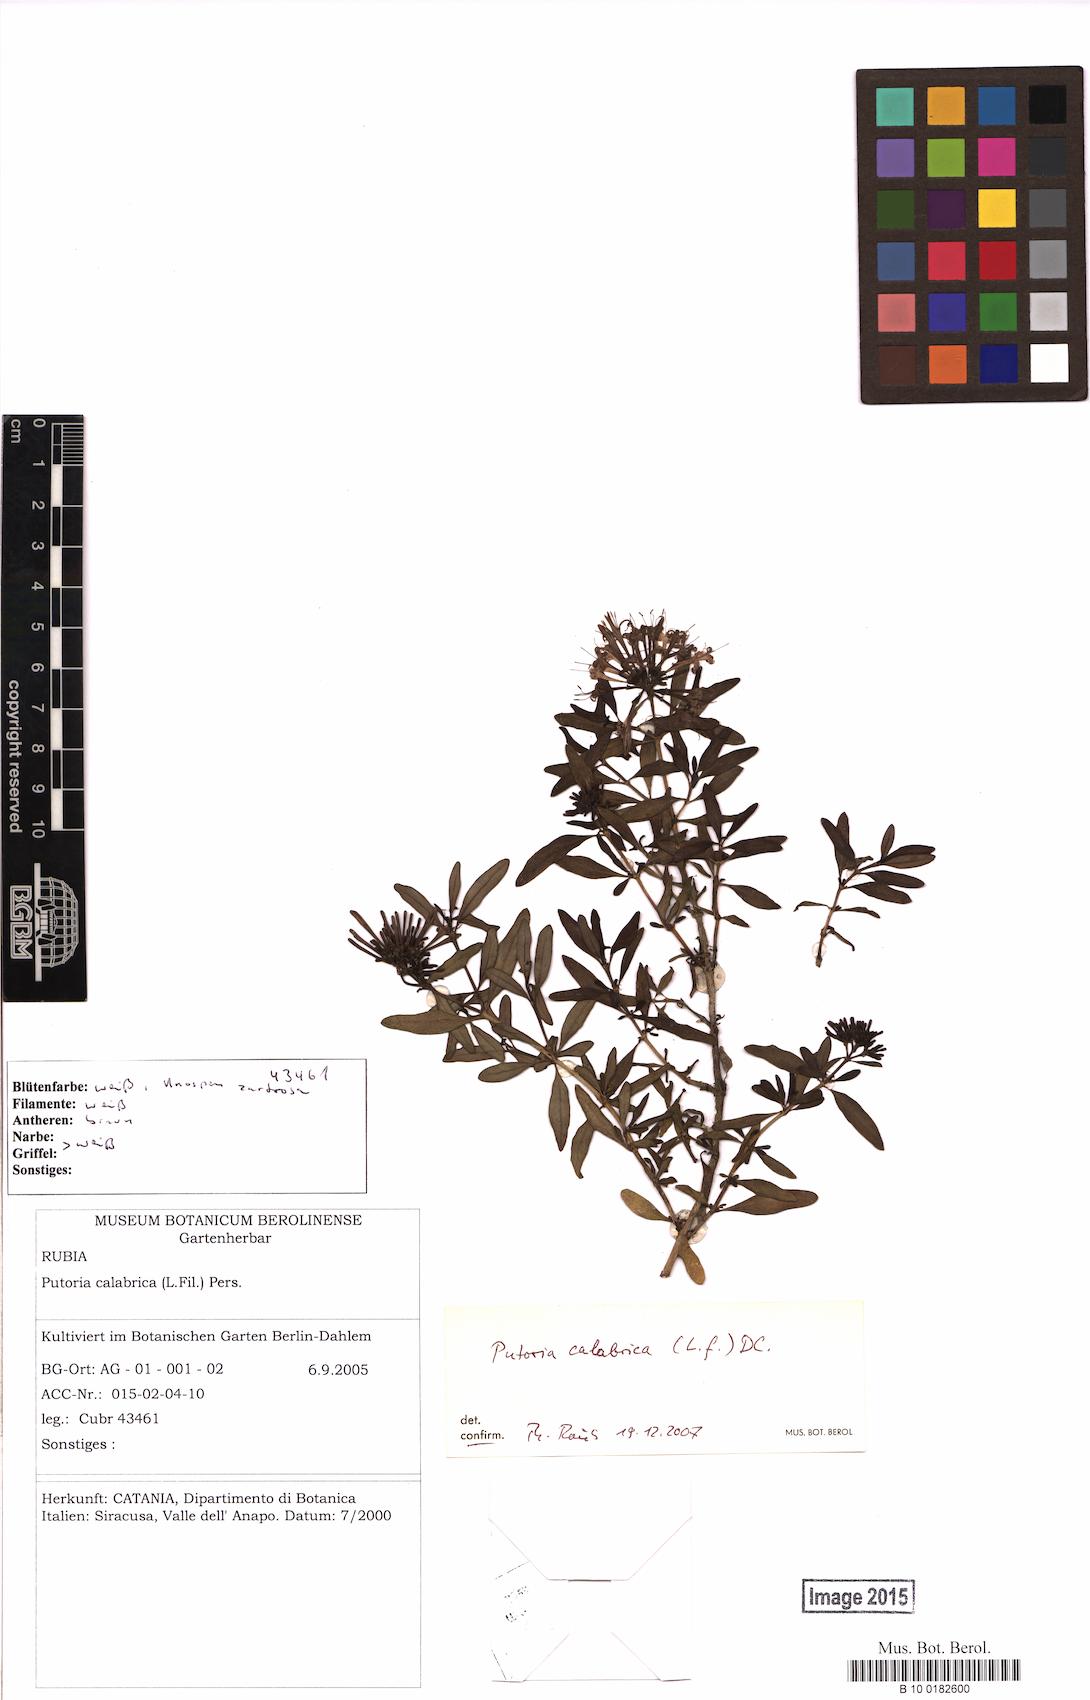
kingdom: Plantae
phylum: Tracheophyta
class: Magnoliopsida
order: Gentianales
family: Rubiaceae
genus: Plocama
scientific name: Plocama calabrica
